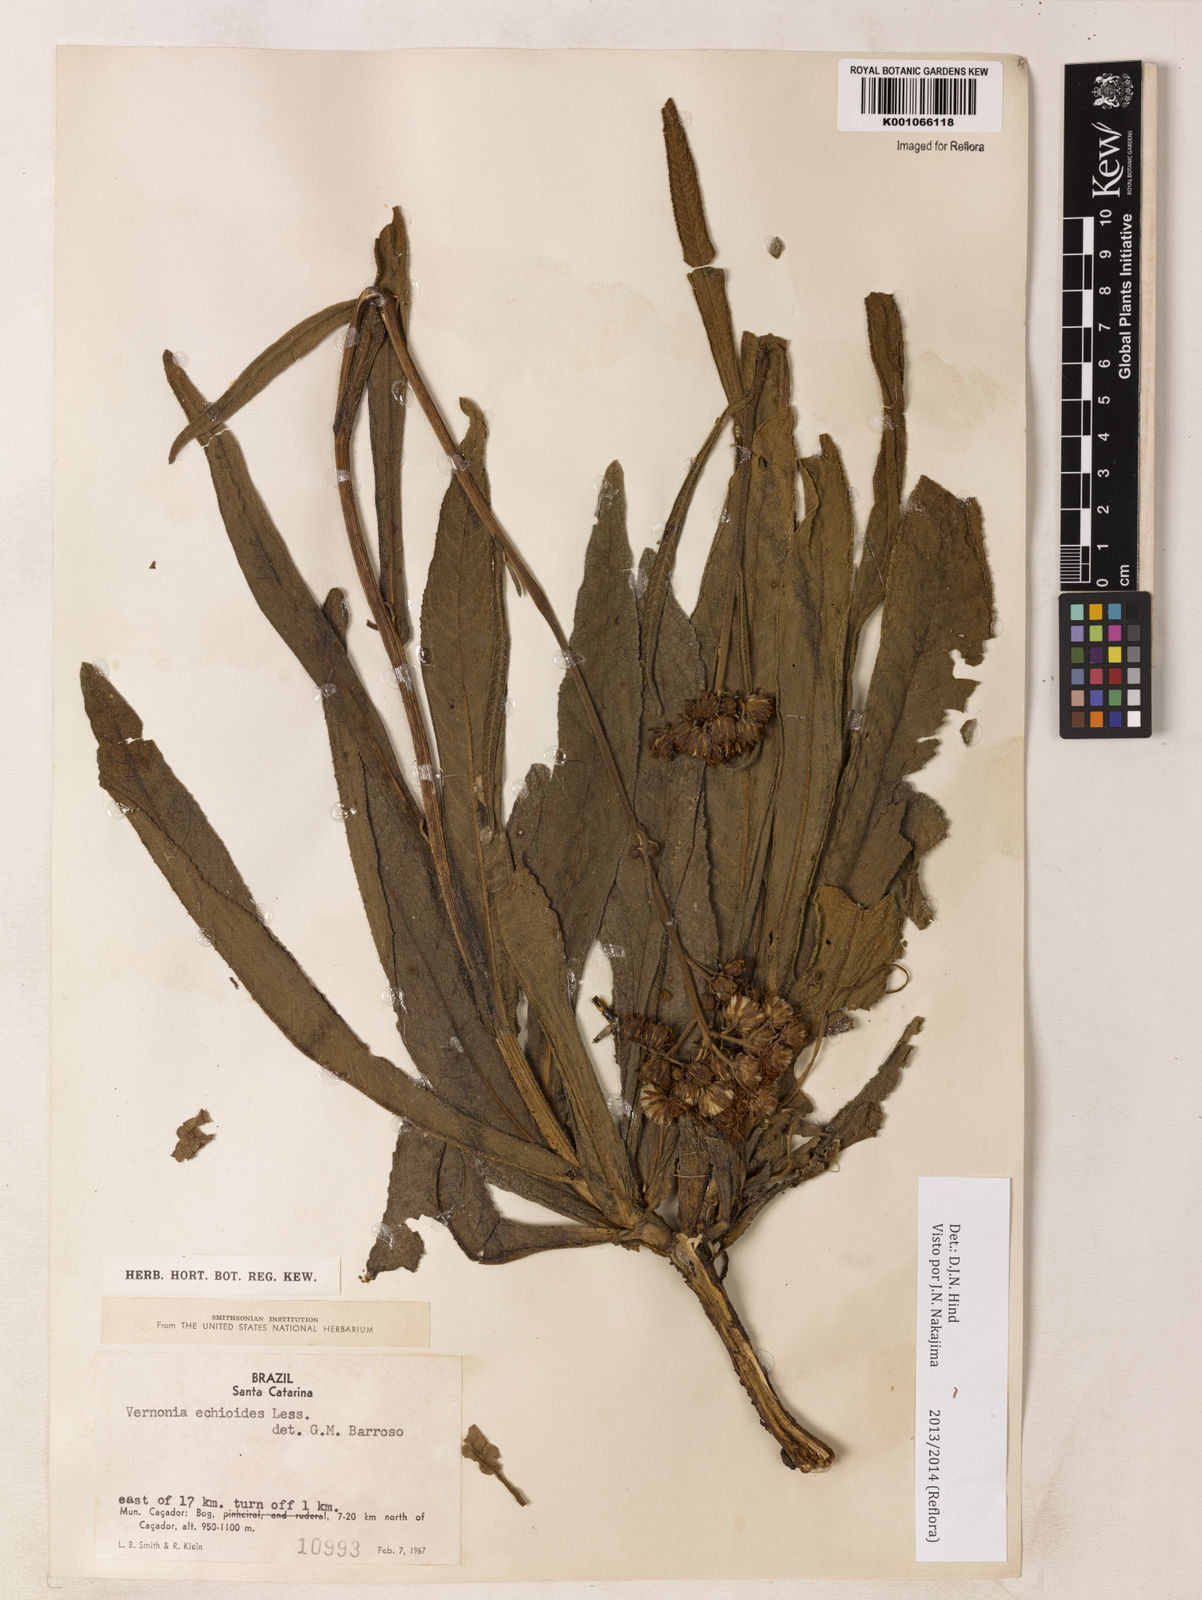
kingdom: Plantae
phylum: Tracheophyta
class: Magnoliopsida
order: Asterales
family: Asteraceae
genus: Vernonia
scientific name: Vernonia echioides
